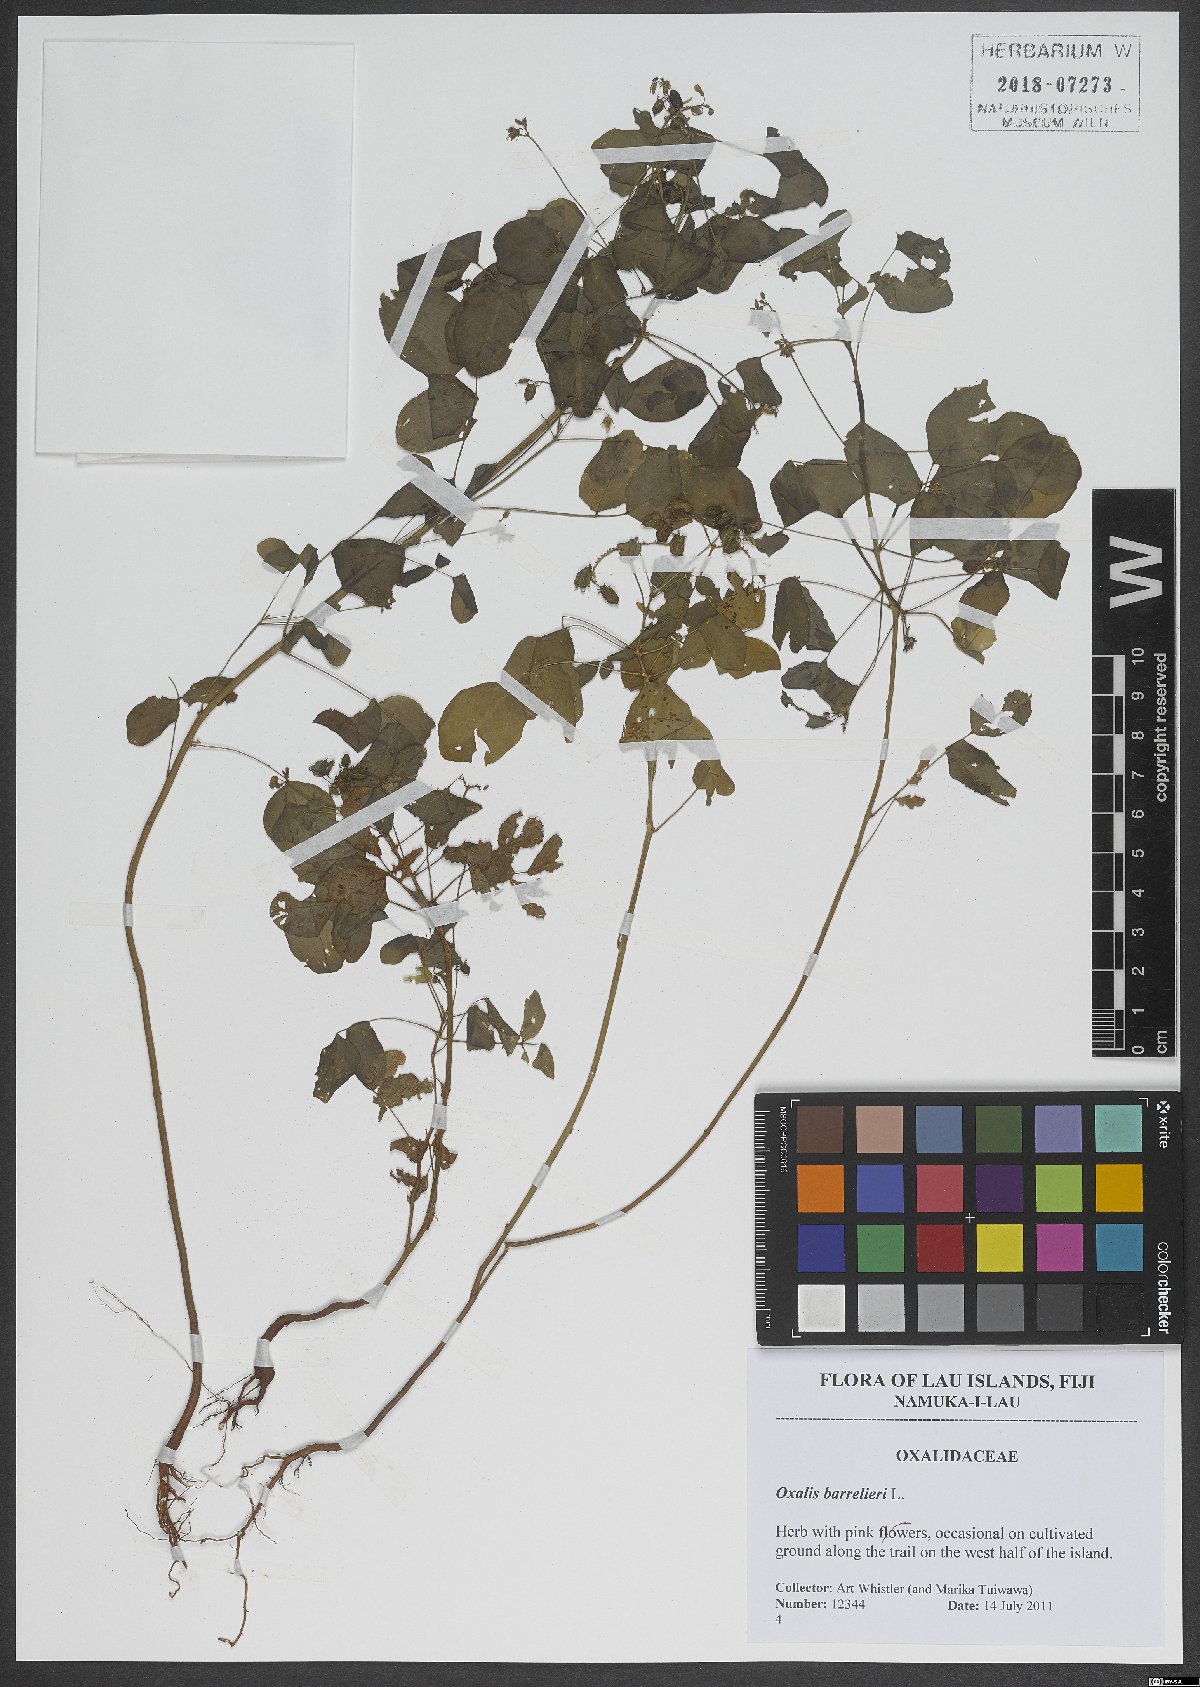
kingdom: Plantae
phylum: Tracheophyta
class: Magnoliopsida
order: Oxalidales
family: Oxalidaceae
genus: Oxalis
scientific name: Oxalis barrelieri
